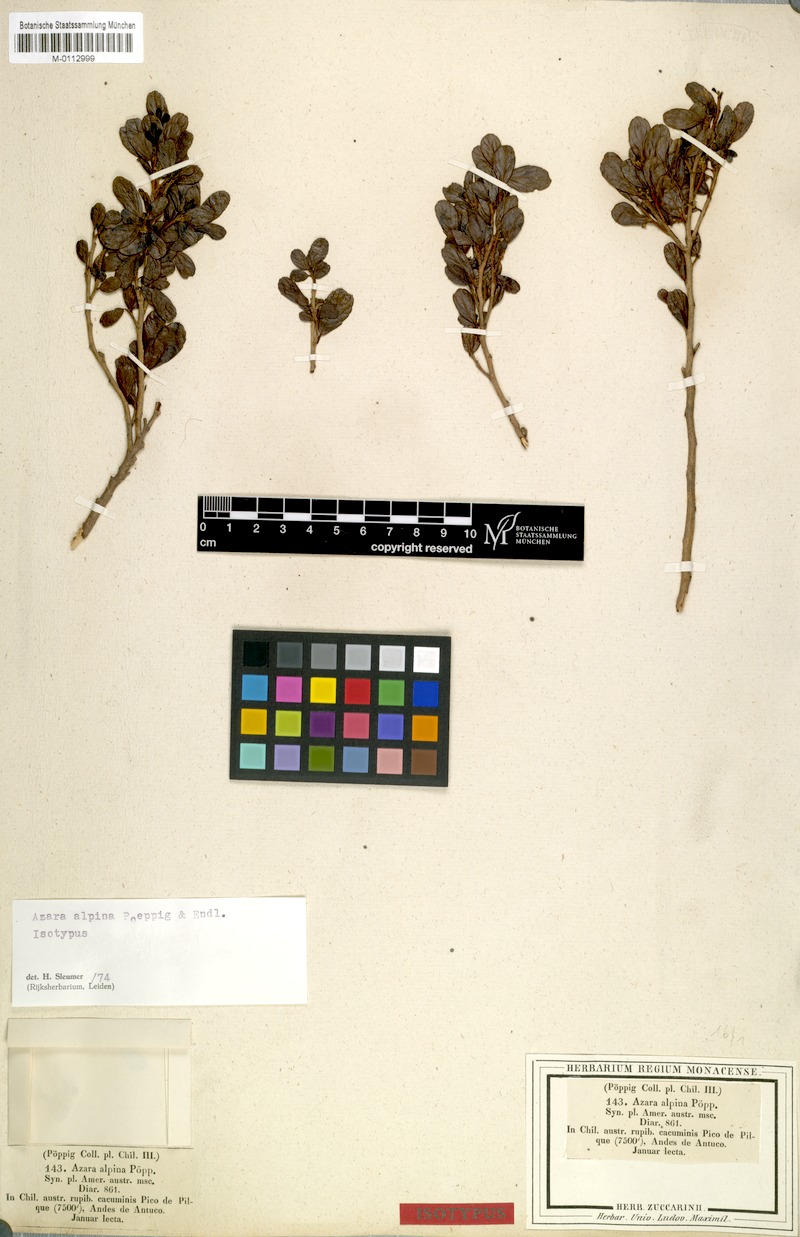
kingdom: Plantae
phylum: Tracheophyta
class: Magnoliopsida
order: Malpighiales
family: Salicaceae
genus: Azara
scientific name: Azara alpina
